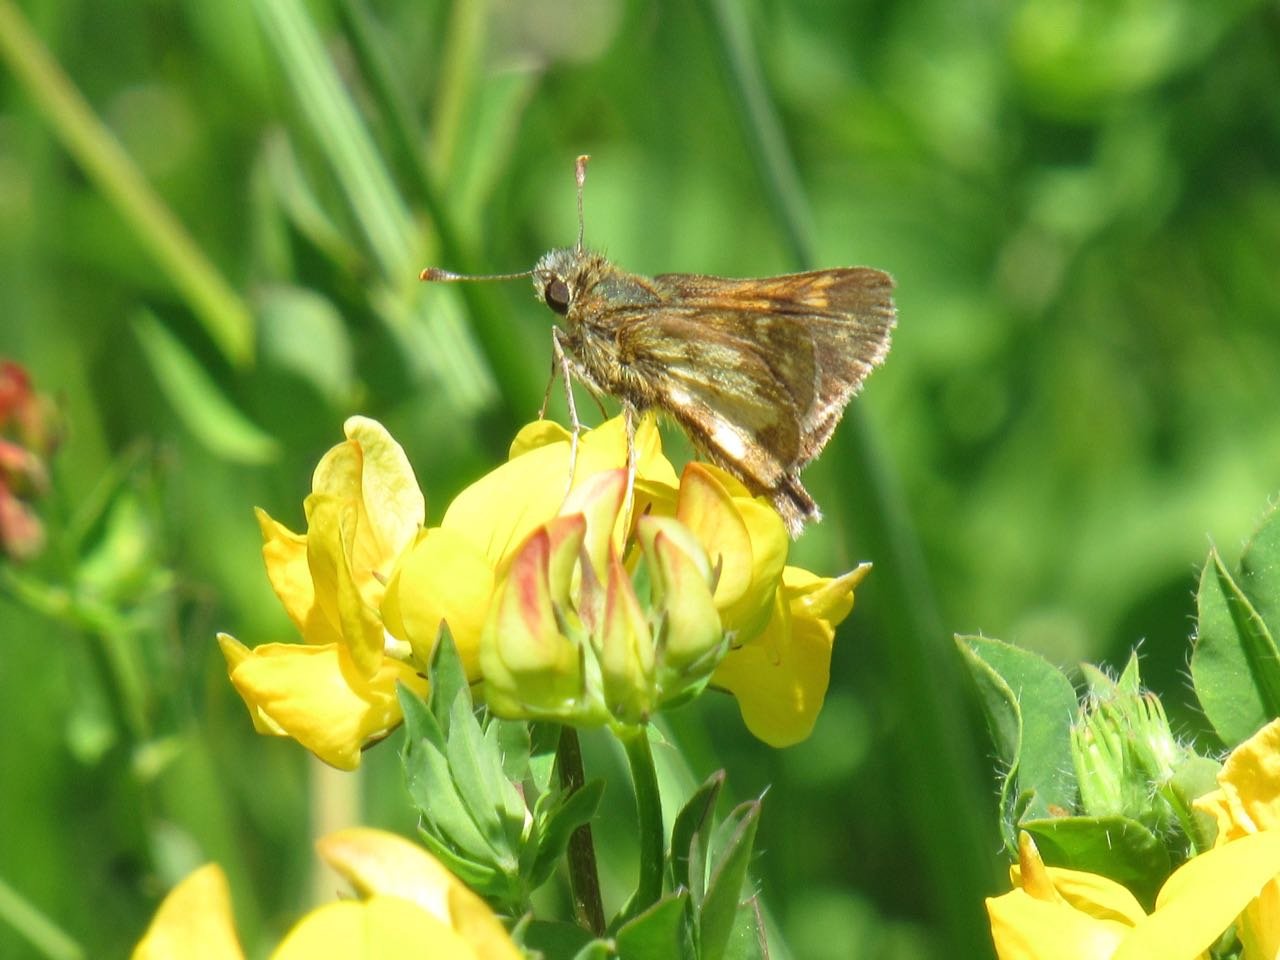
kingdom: Animalia
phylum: Arthropoda
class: Insecta
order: Lepidoptera
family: Hesperiidae
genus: Polites
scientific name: Polites coras
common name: Peck's Skipper
